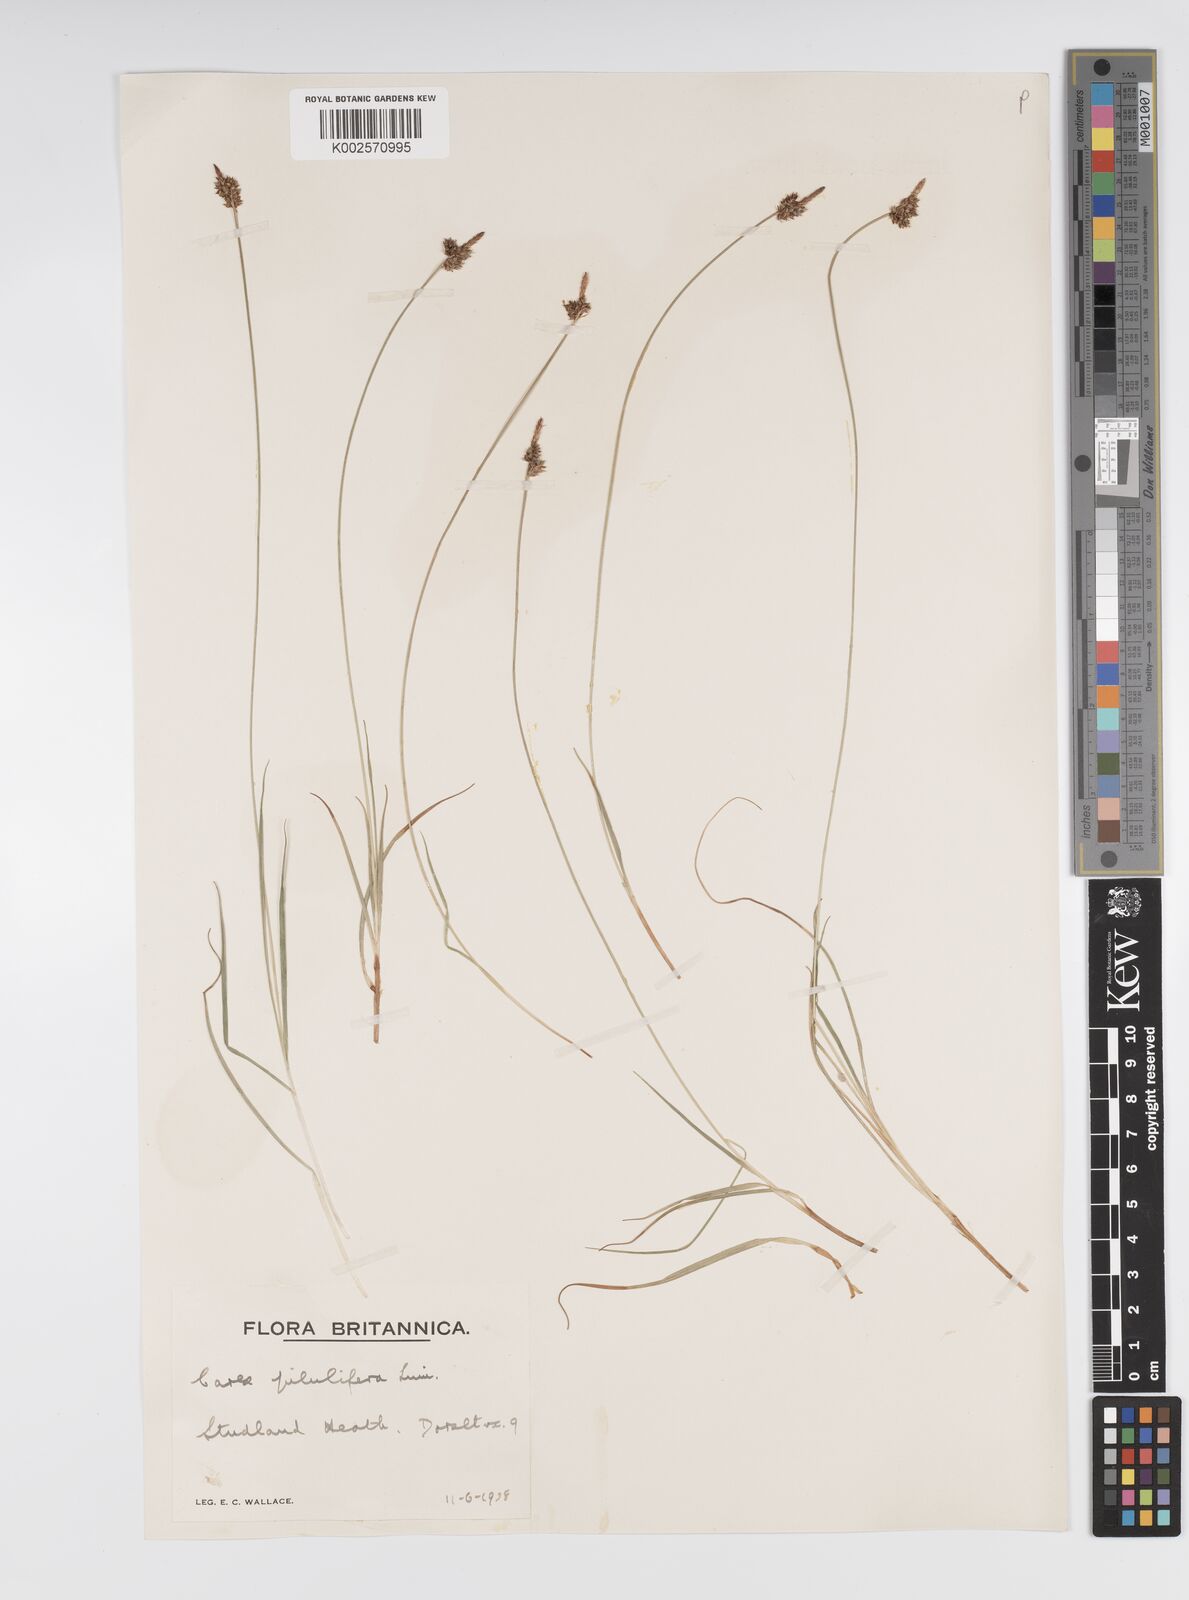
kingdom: Plantae
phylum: Tracheophyta
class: Liliopsida
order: Poales
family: Cyperaceae
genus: Carex
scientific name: Carex praecox
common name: Early sedge
